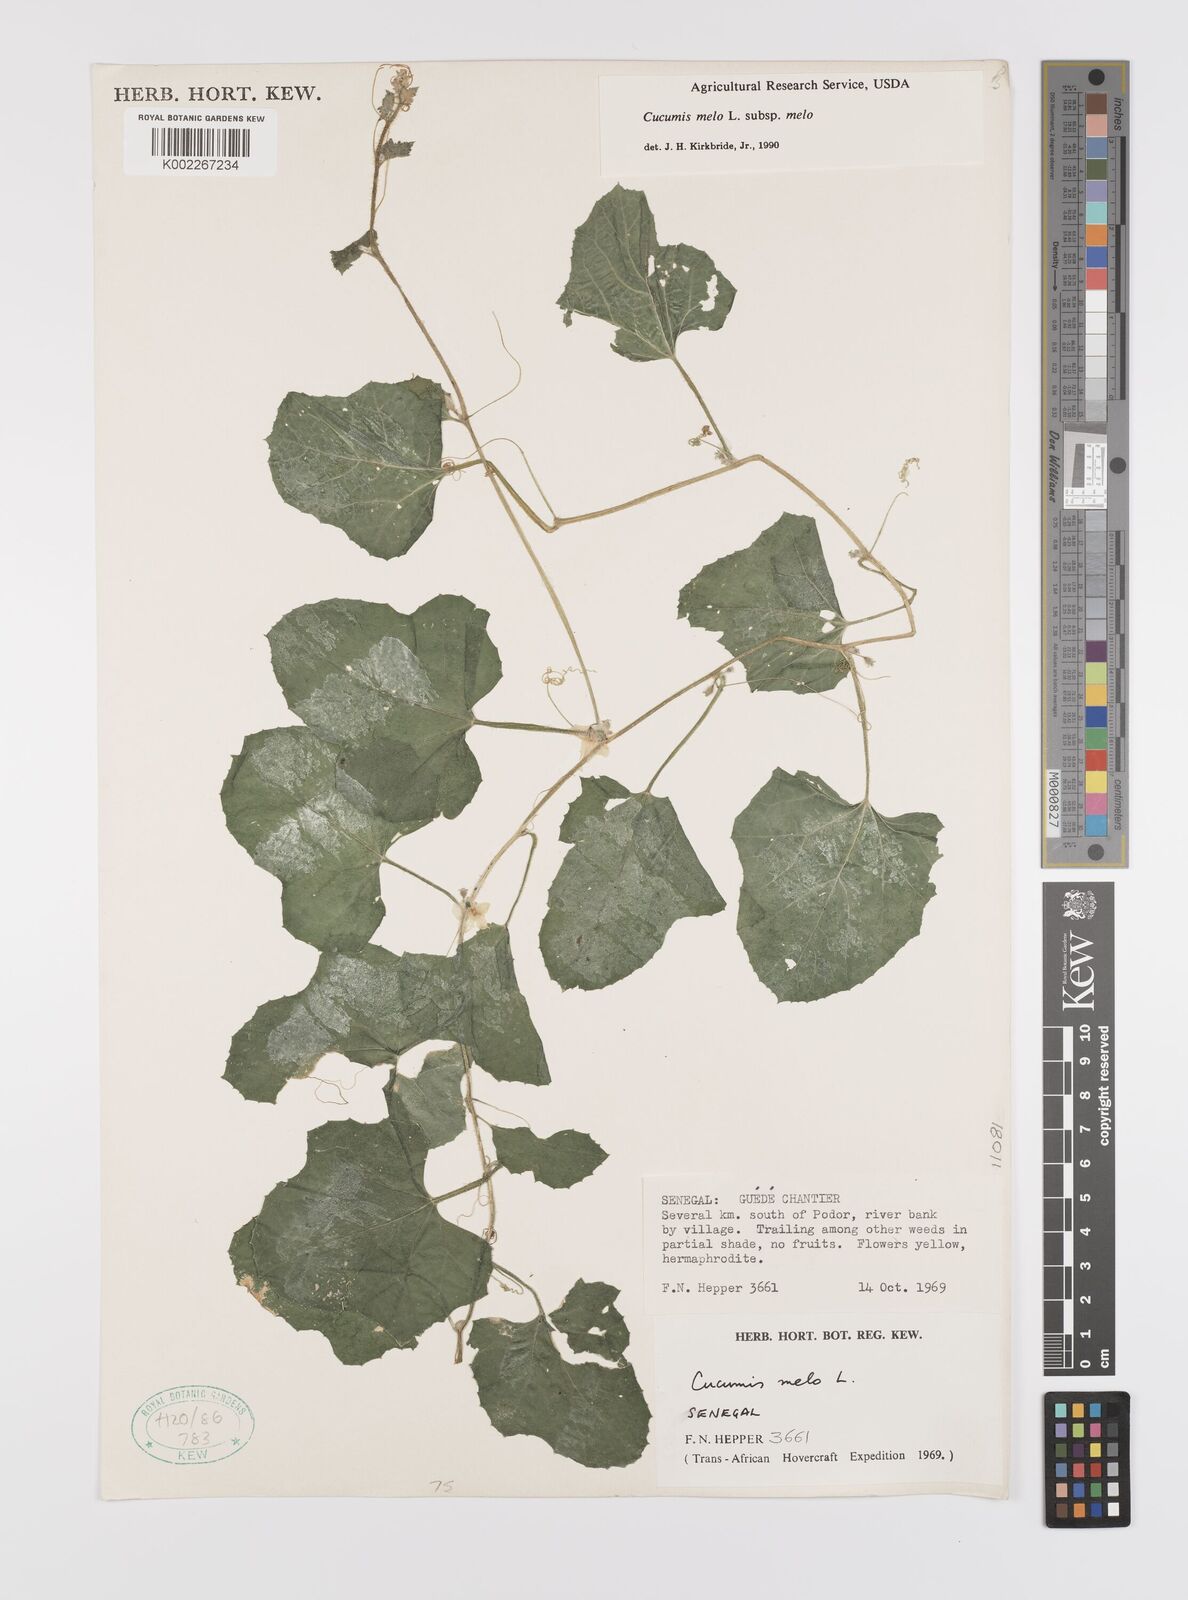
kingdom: Plantae
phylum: Tracheophyta
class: Magnoliopsida
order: Cucurbitales
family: Cucurbitaceae
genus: Cucumis
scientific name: Cucumis melo
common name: Melon
